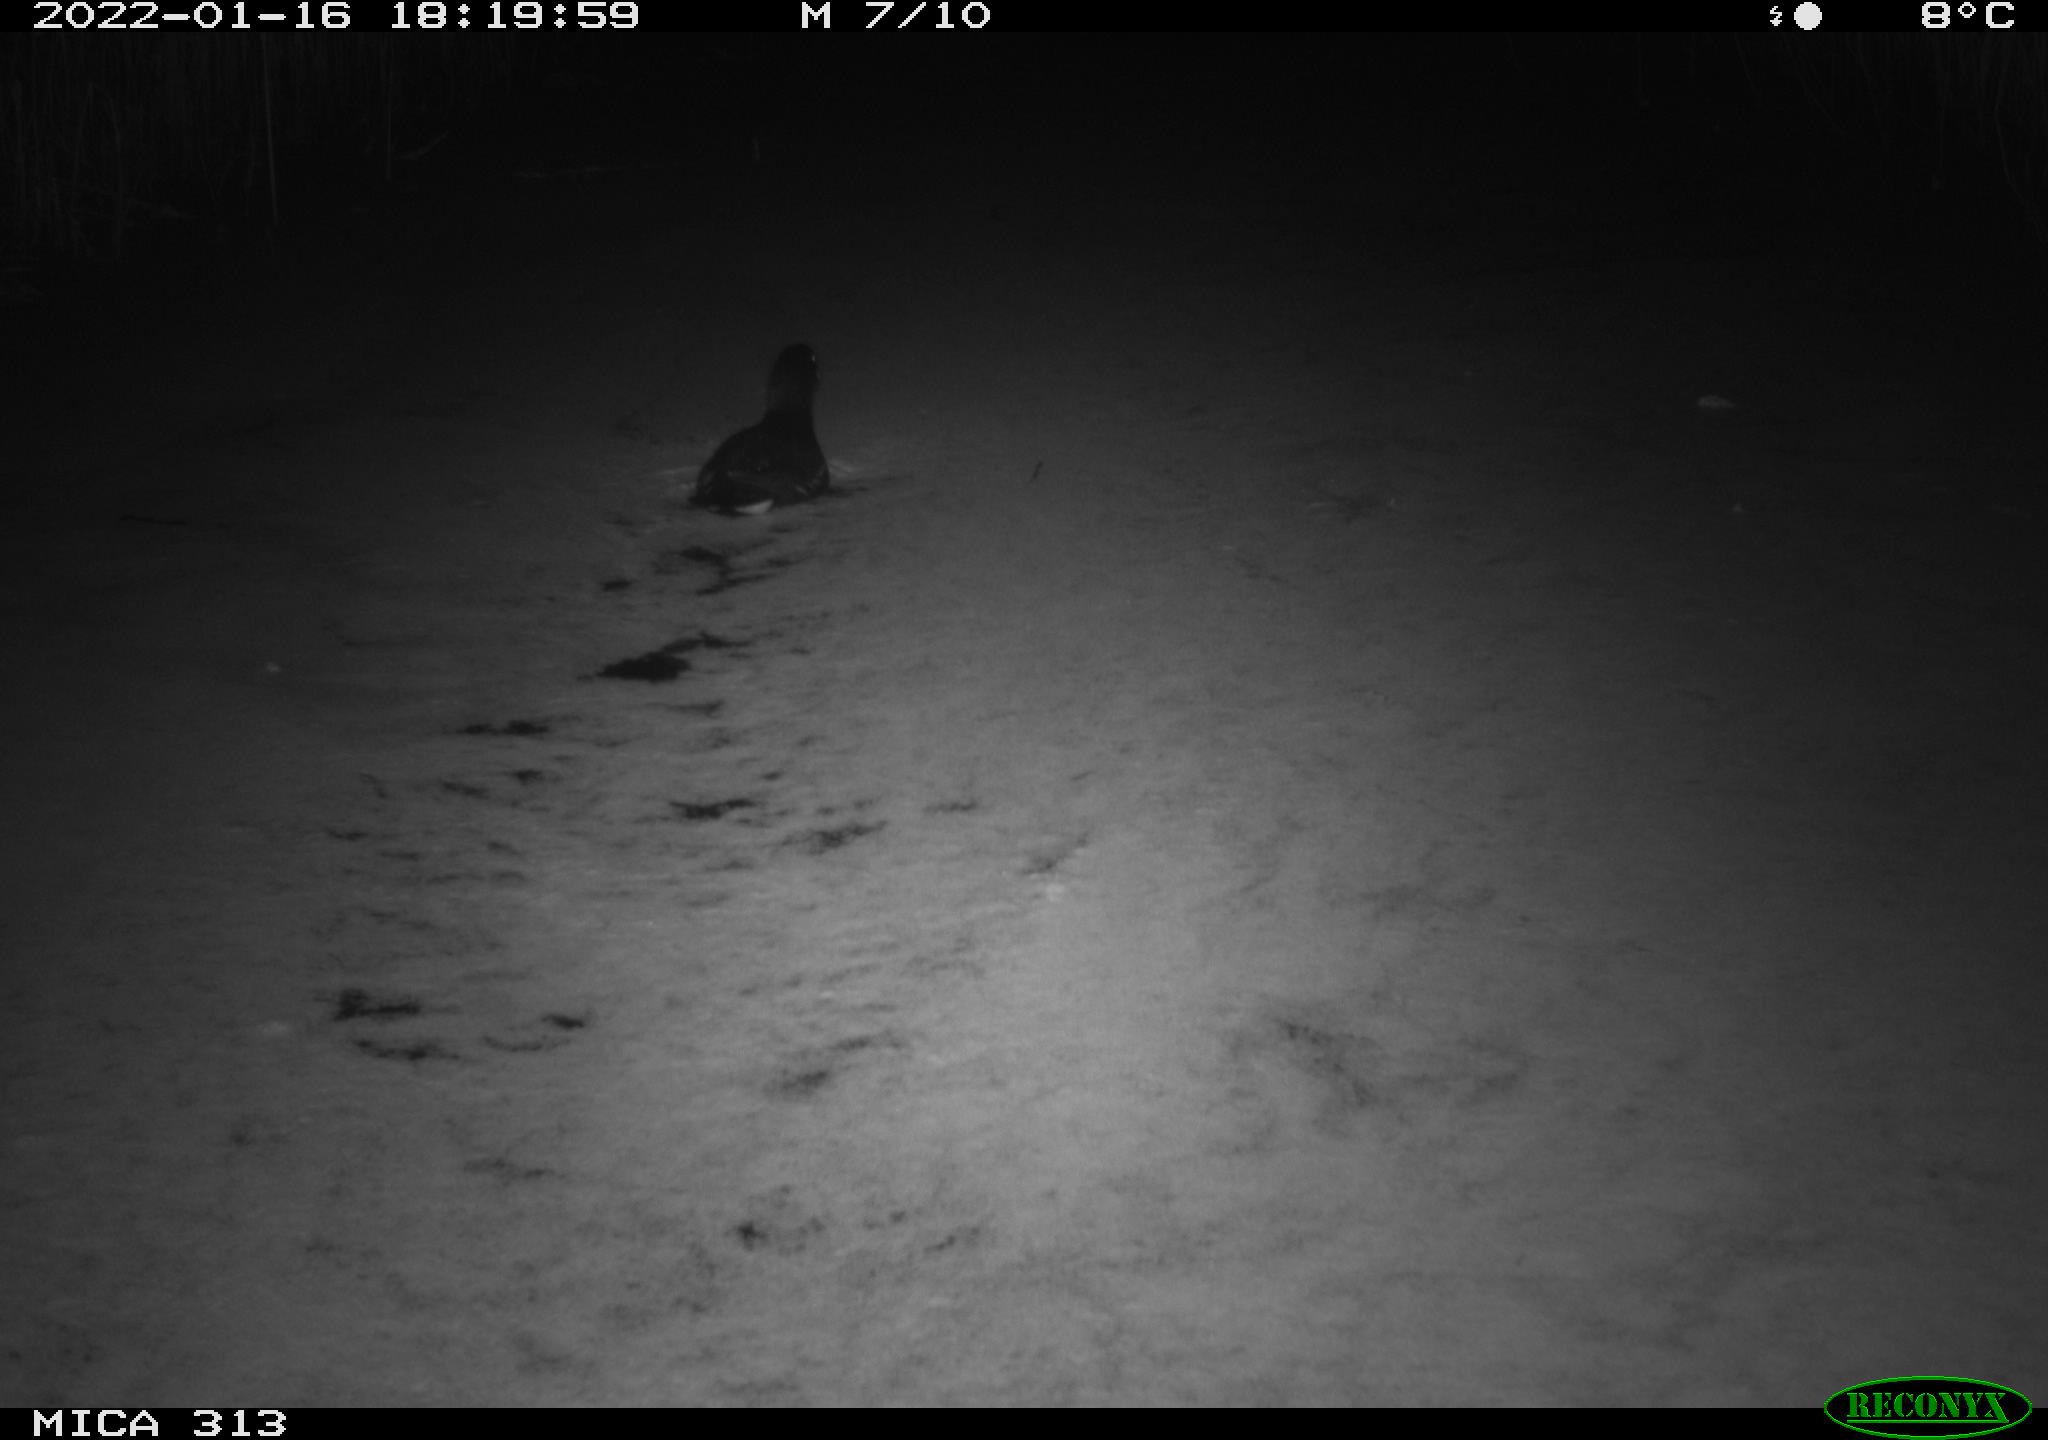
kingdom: Animalia
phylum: Chordata
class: Aves
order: Gruiformes
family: Rallidae
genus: Gallinula
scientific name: Gallinula chloropus
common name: Common moorhen
